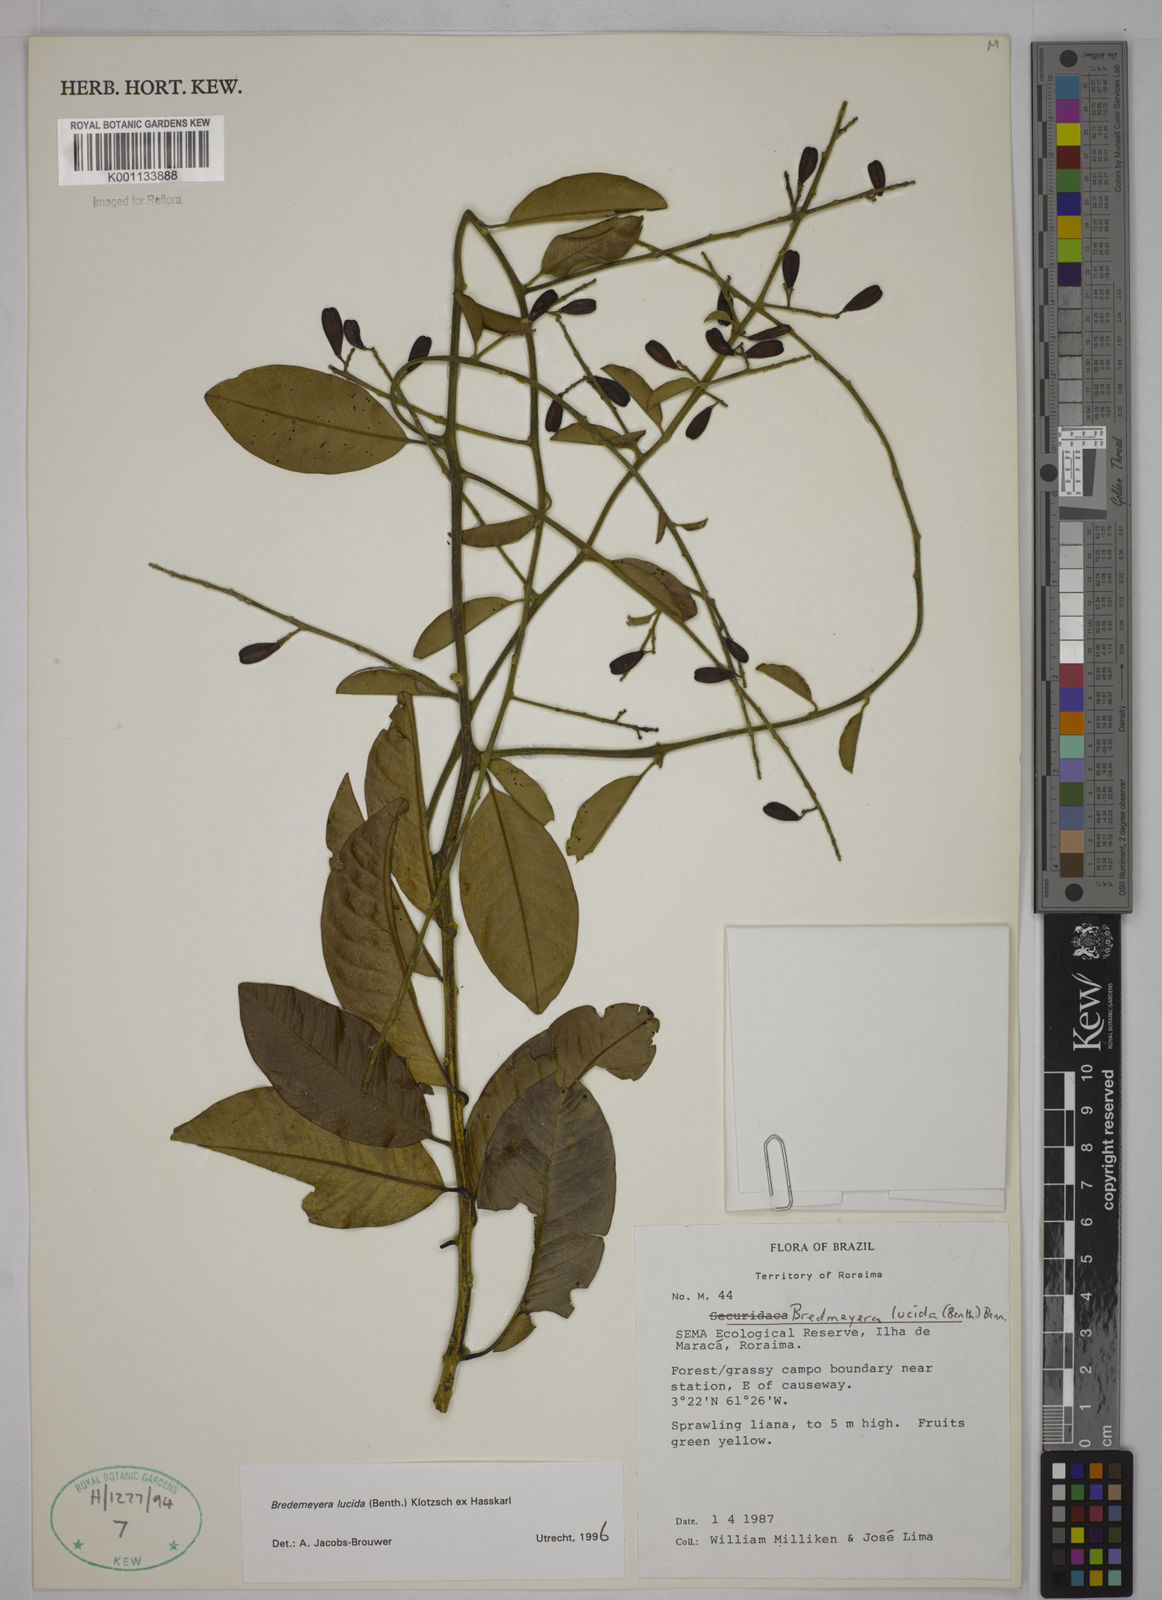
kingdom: Plantae
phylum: Tracheophyta
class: Magnoliopsida
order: Fabales
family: Polygalaceae
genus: Bredemeyera
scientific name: Bredemeyera lucida
